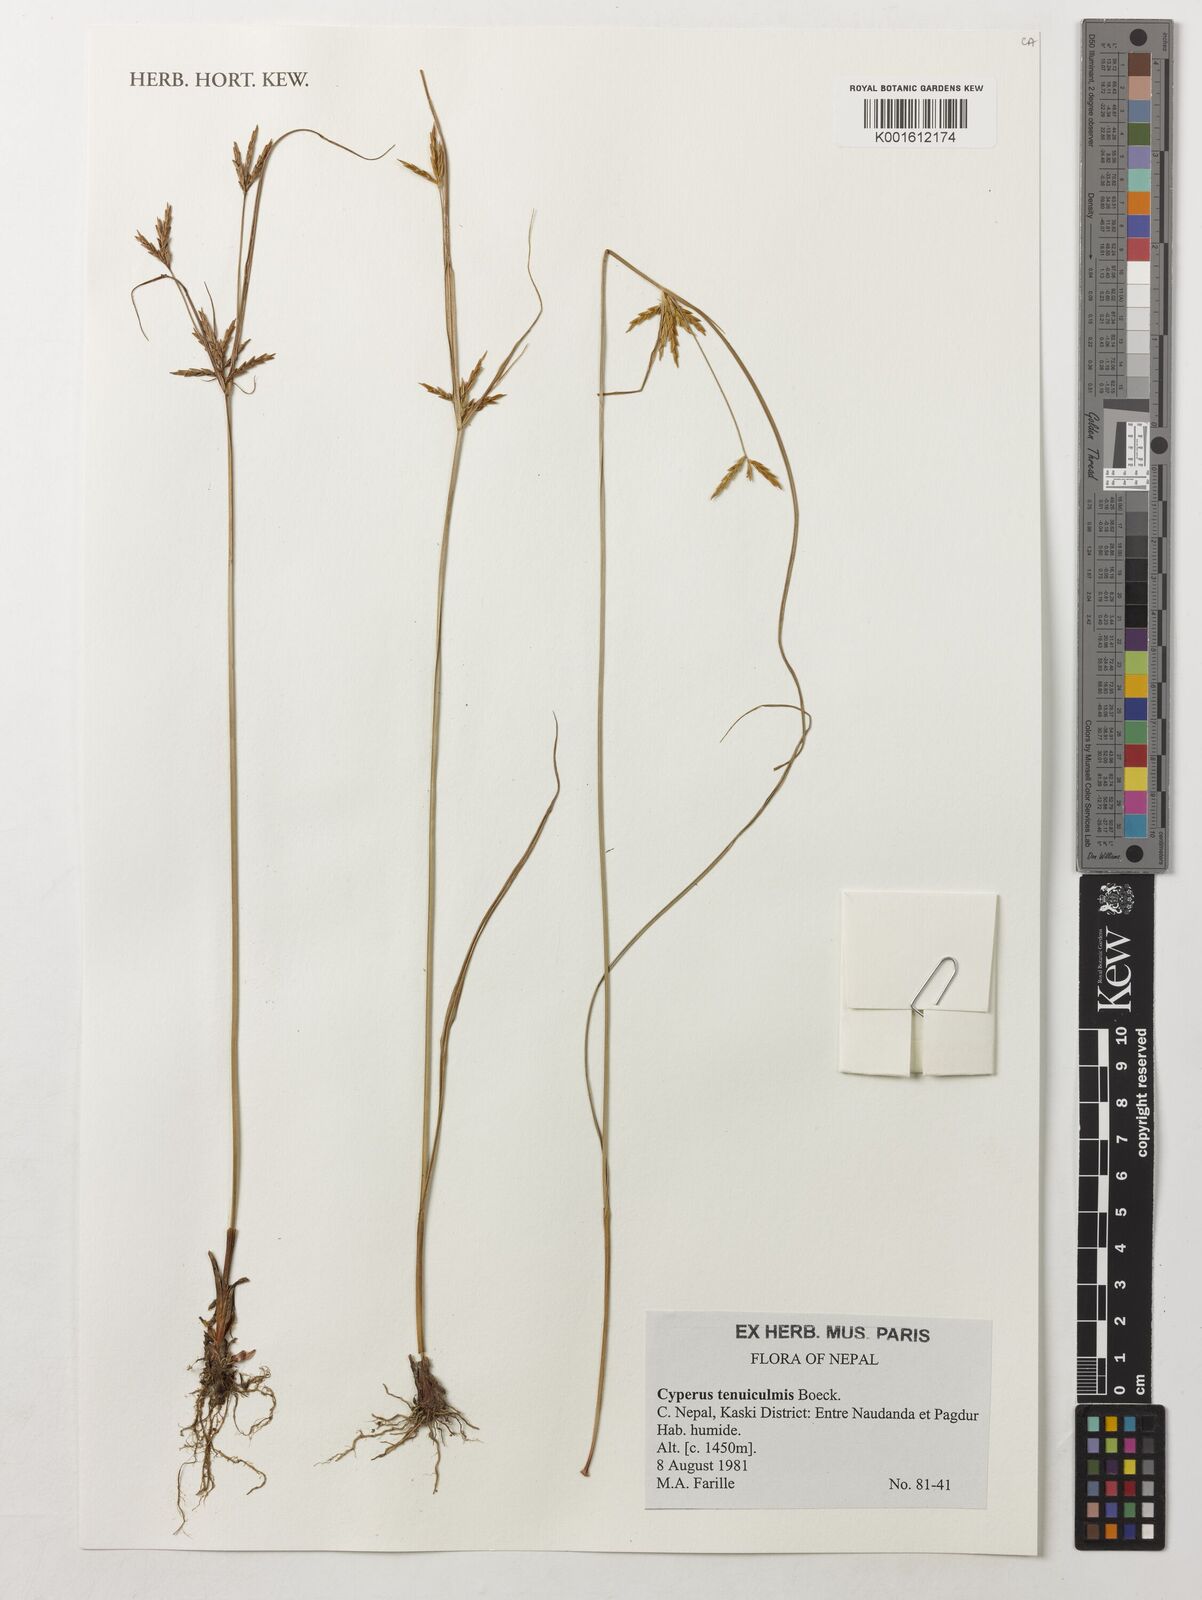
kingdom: Plantae
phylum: Tracheophyta
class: Liliopsida
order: Poales
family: Cyperaceae
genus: Cyperus
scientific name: Cyperus tenuiculmis
